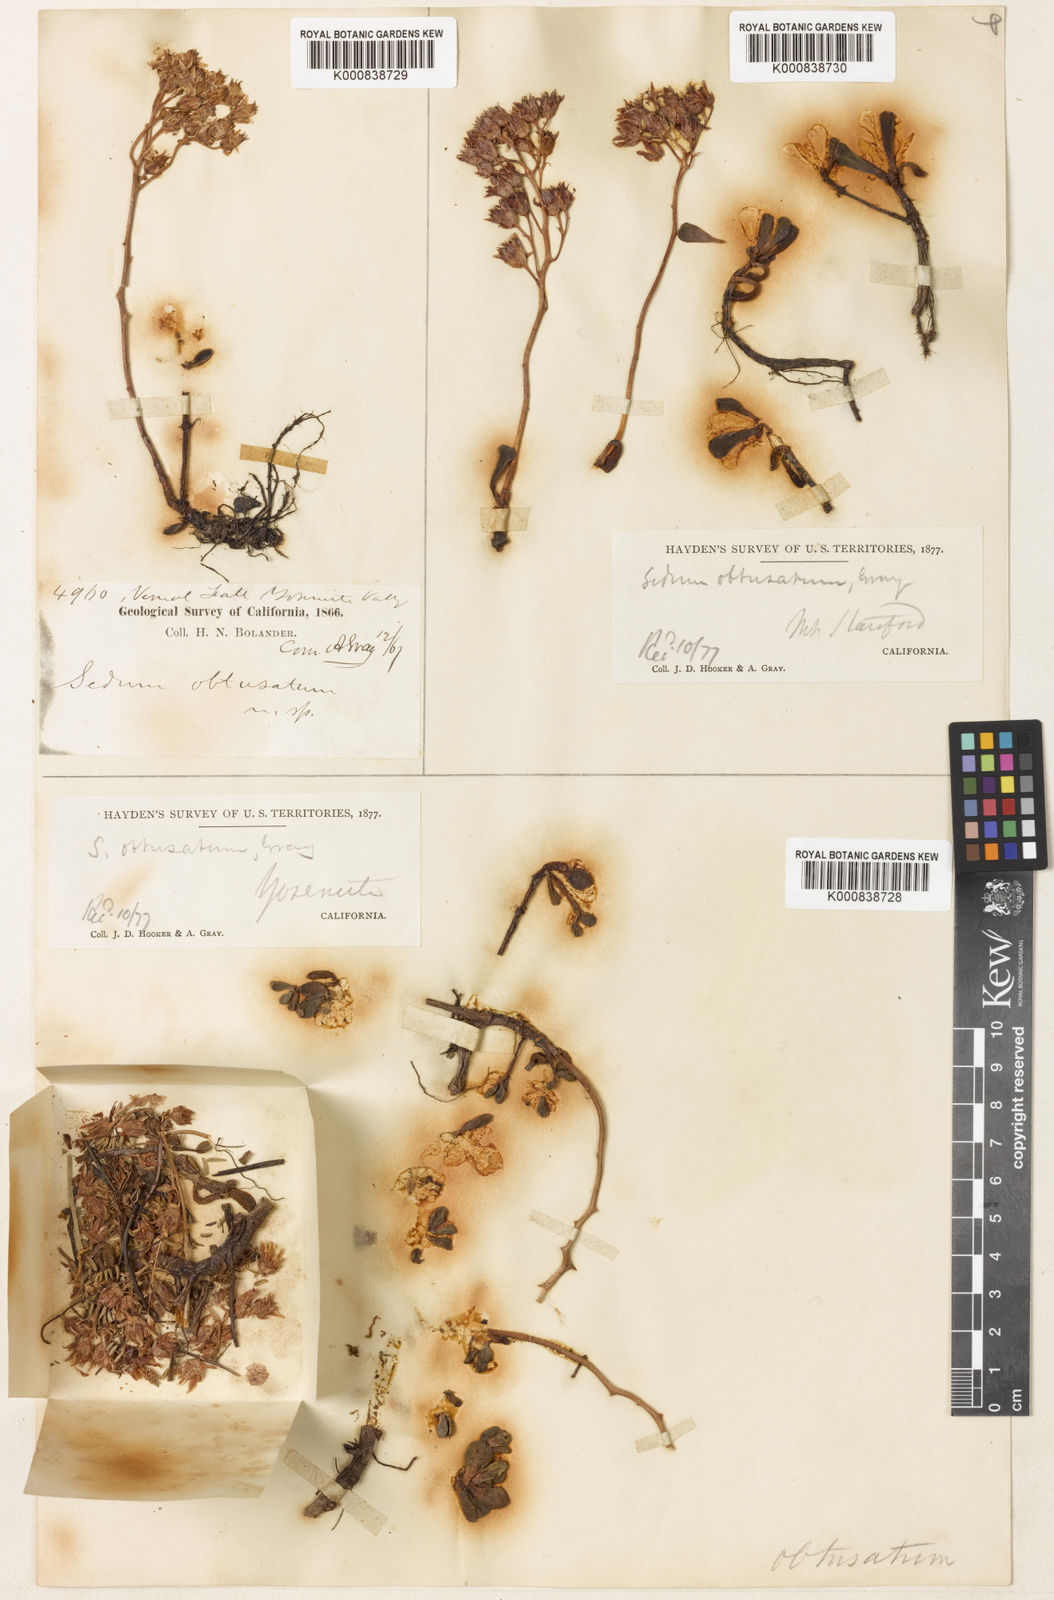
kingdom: Plantae
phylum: Tracheophyta
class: Magnoliopsida
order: Saxifragales
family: Crassulaceae
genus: Sedum
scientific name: Sedum obtusatum
